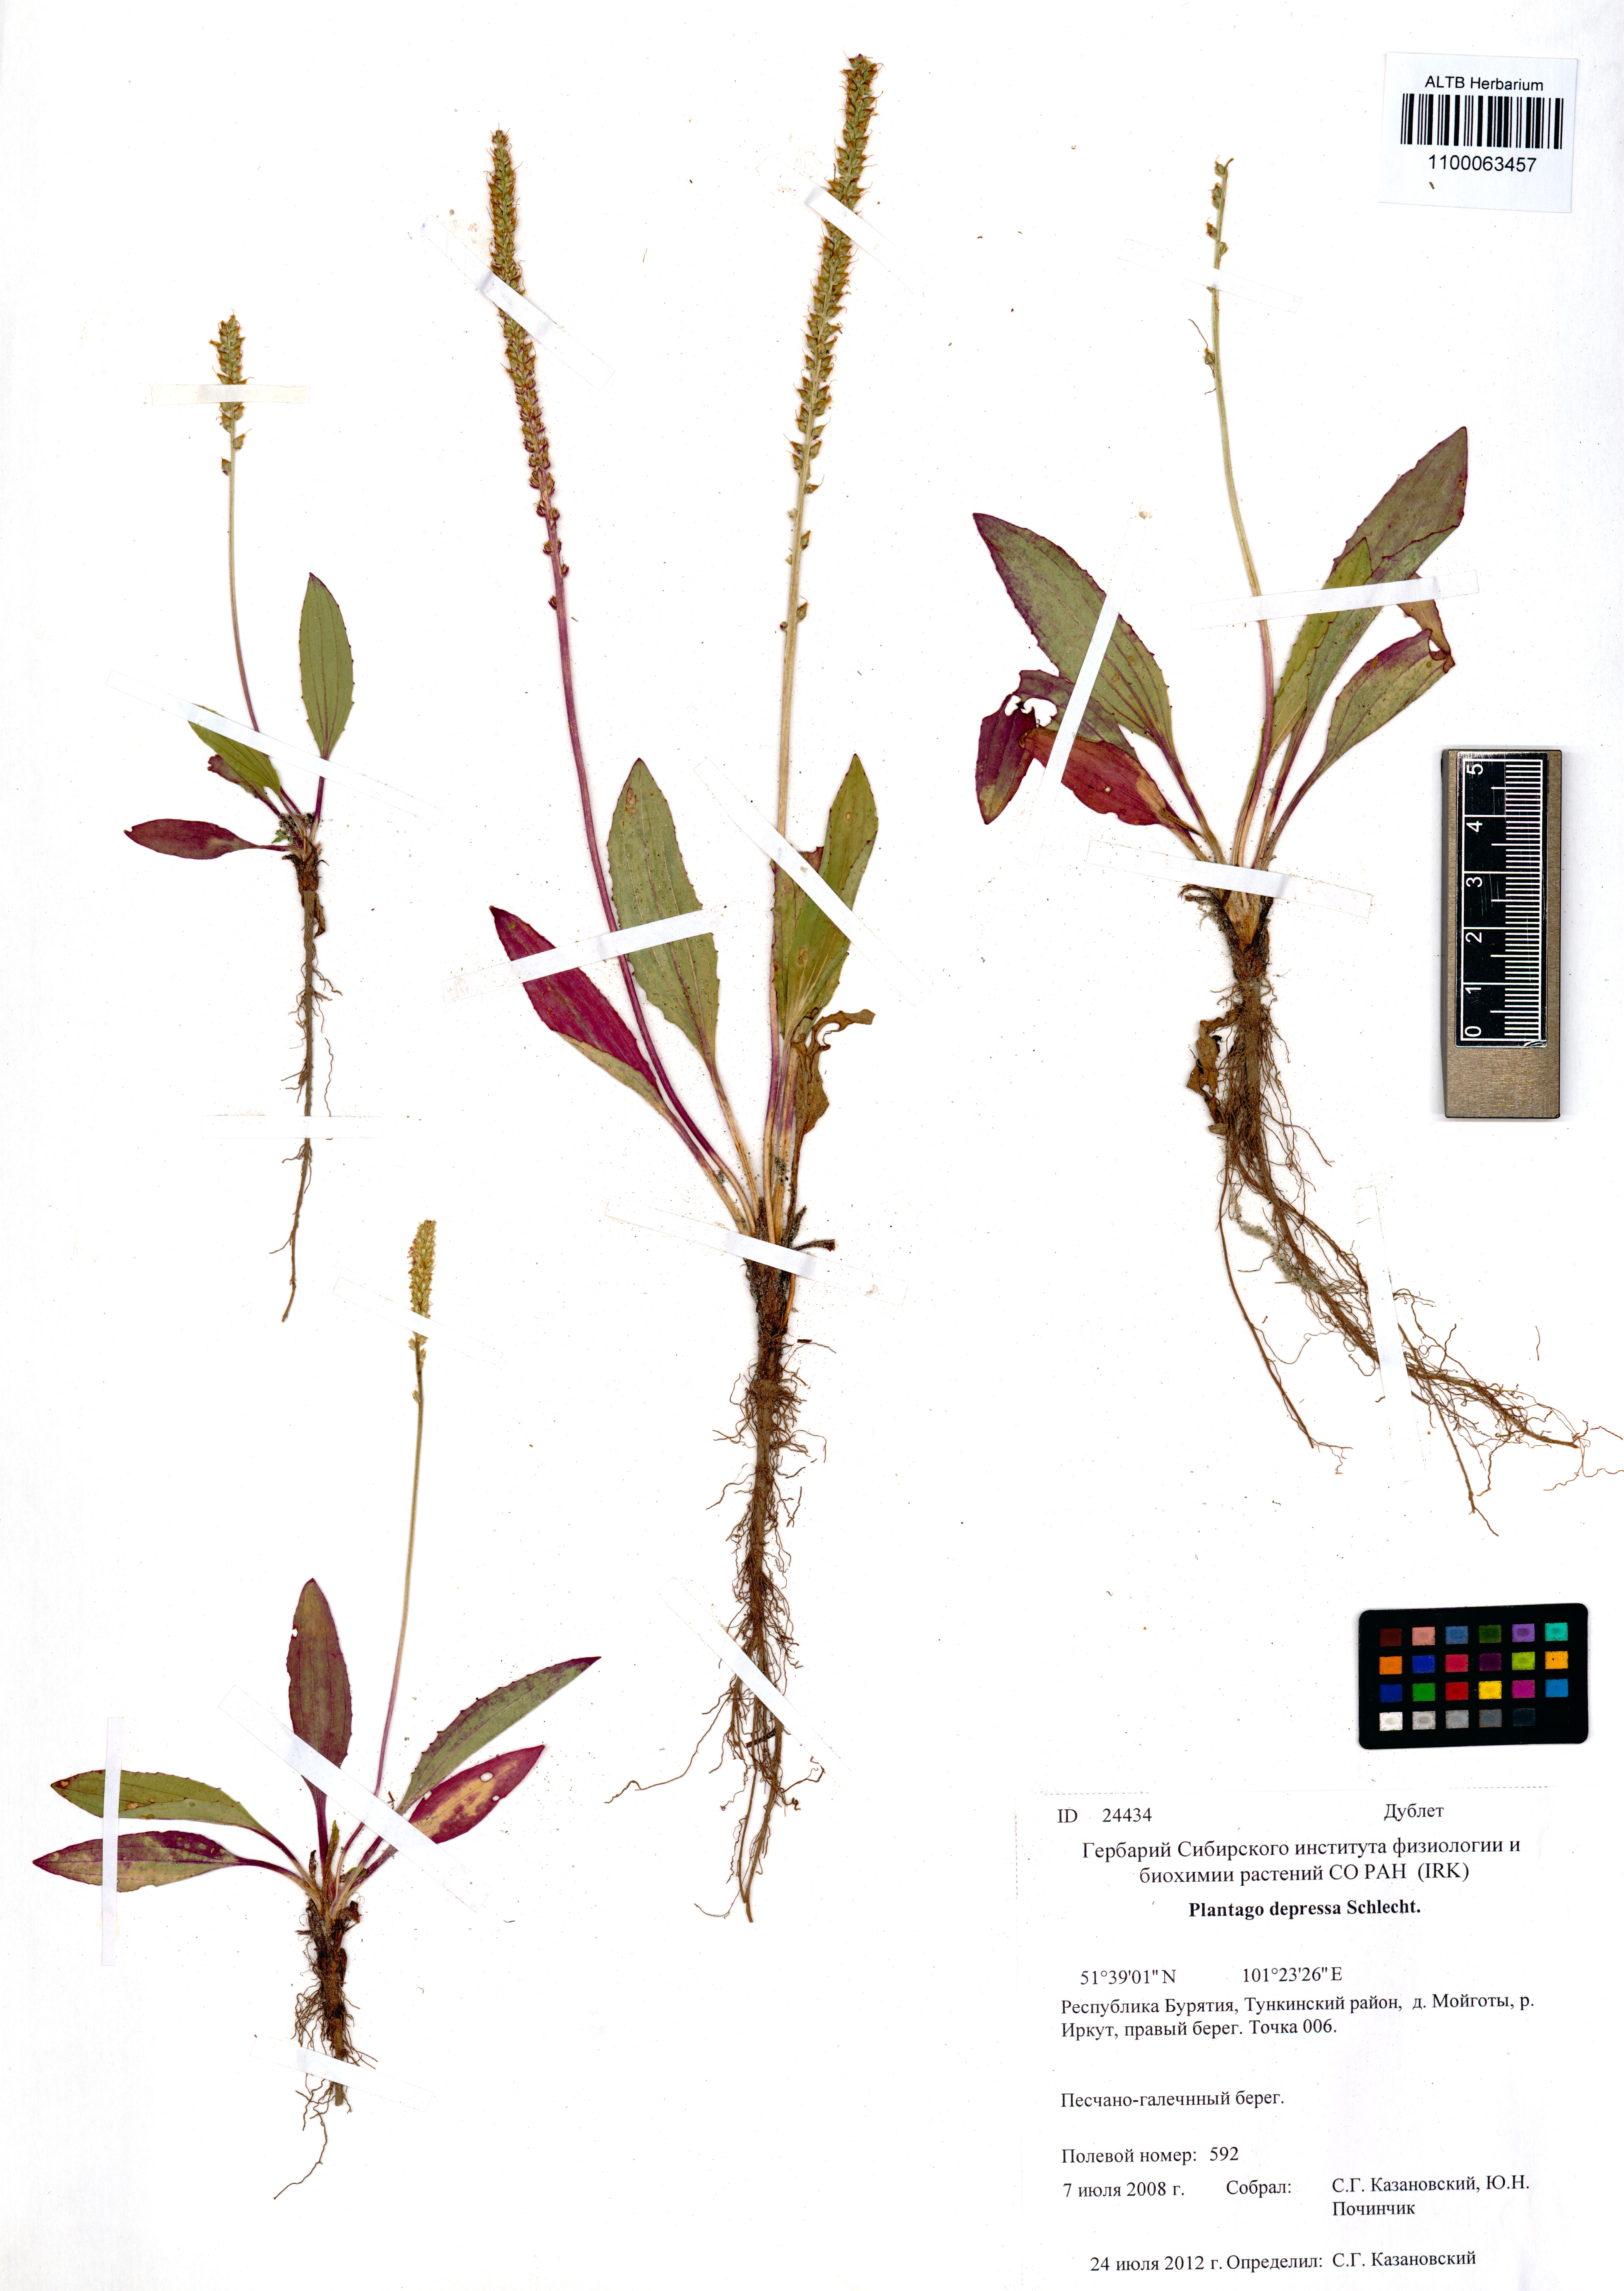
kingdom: Plantae
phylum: Tracheophyta
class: Magnoliopsida
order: Lamiales
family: Plantaginaceae
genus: Plantago
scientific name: Plantago depressa
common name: Depressed plantain
